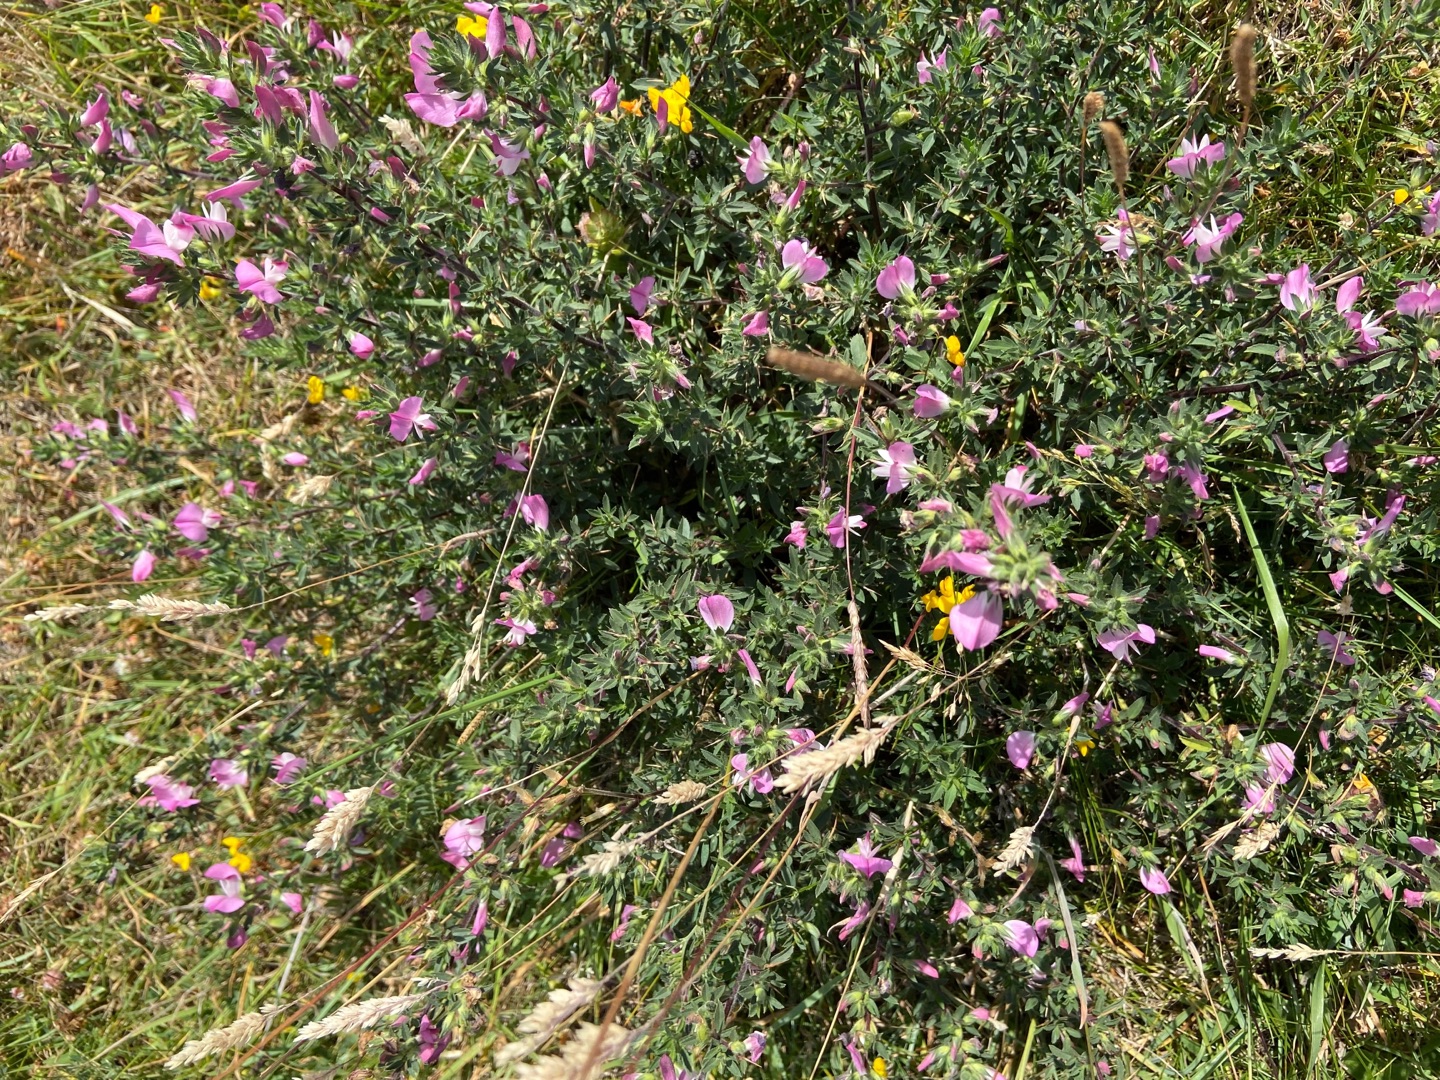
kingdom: Plantae
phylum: Tracheophyta
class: Magnoliopsida
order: Fabales
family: Fabaceae
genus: Ononis
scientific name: Ononis spinosa
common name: Strand-krageklo
